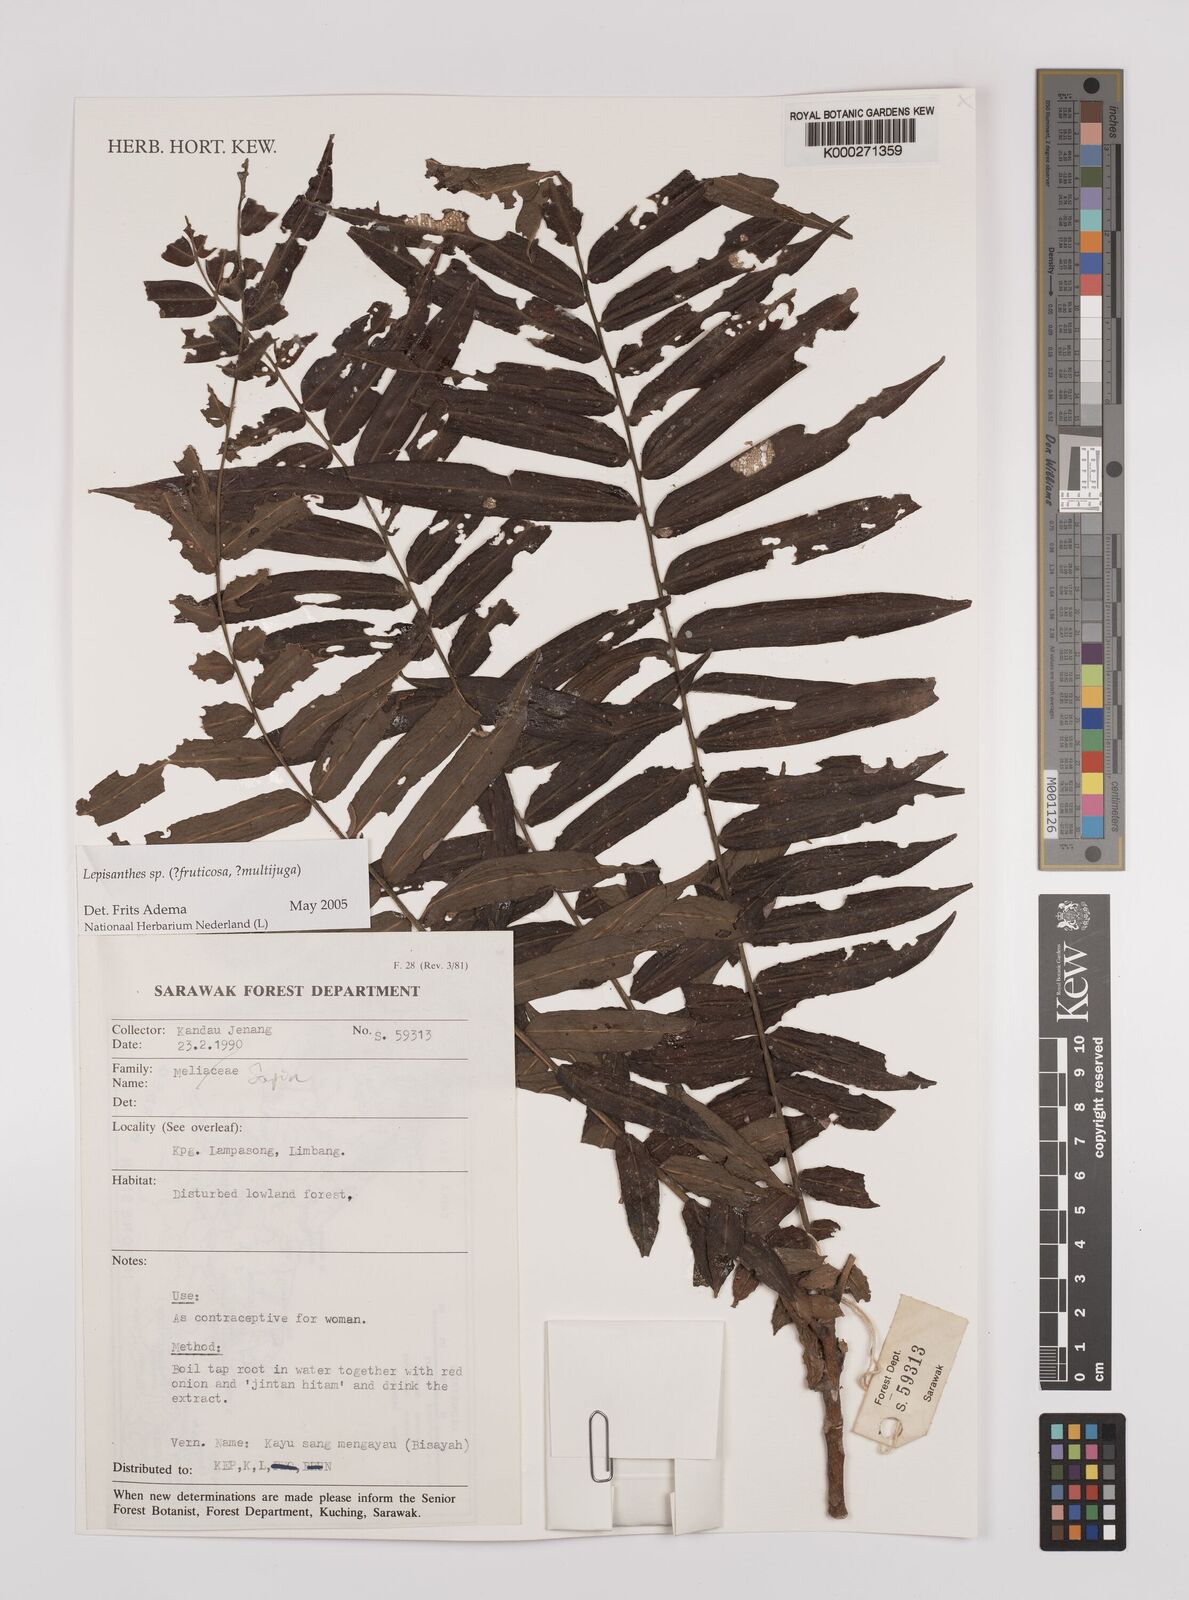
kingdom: Plantae
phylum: Tracheophyta
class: Magnoliopsida
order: Sapindales
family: Sapindaceae
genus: Lepisanthes
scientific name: Lepisanthes
